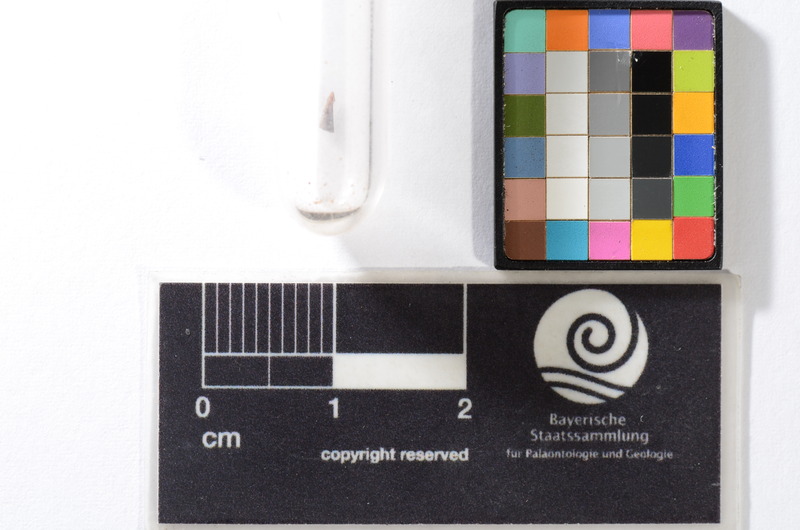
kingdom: Animalia
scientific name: Animalia
